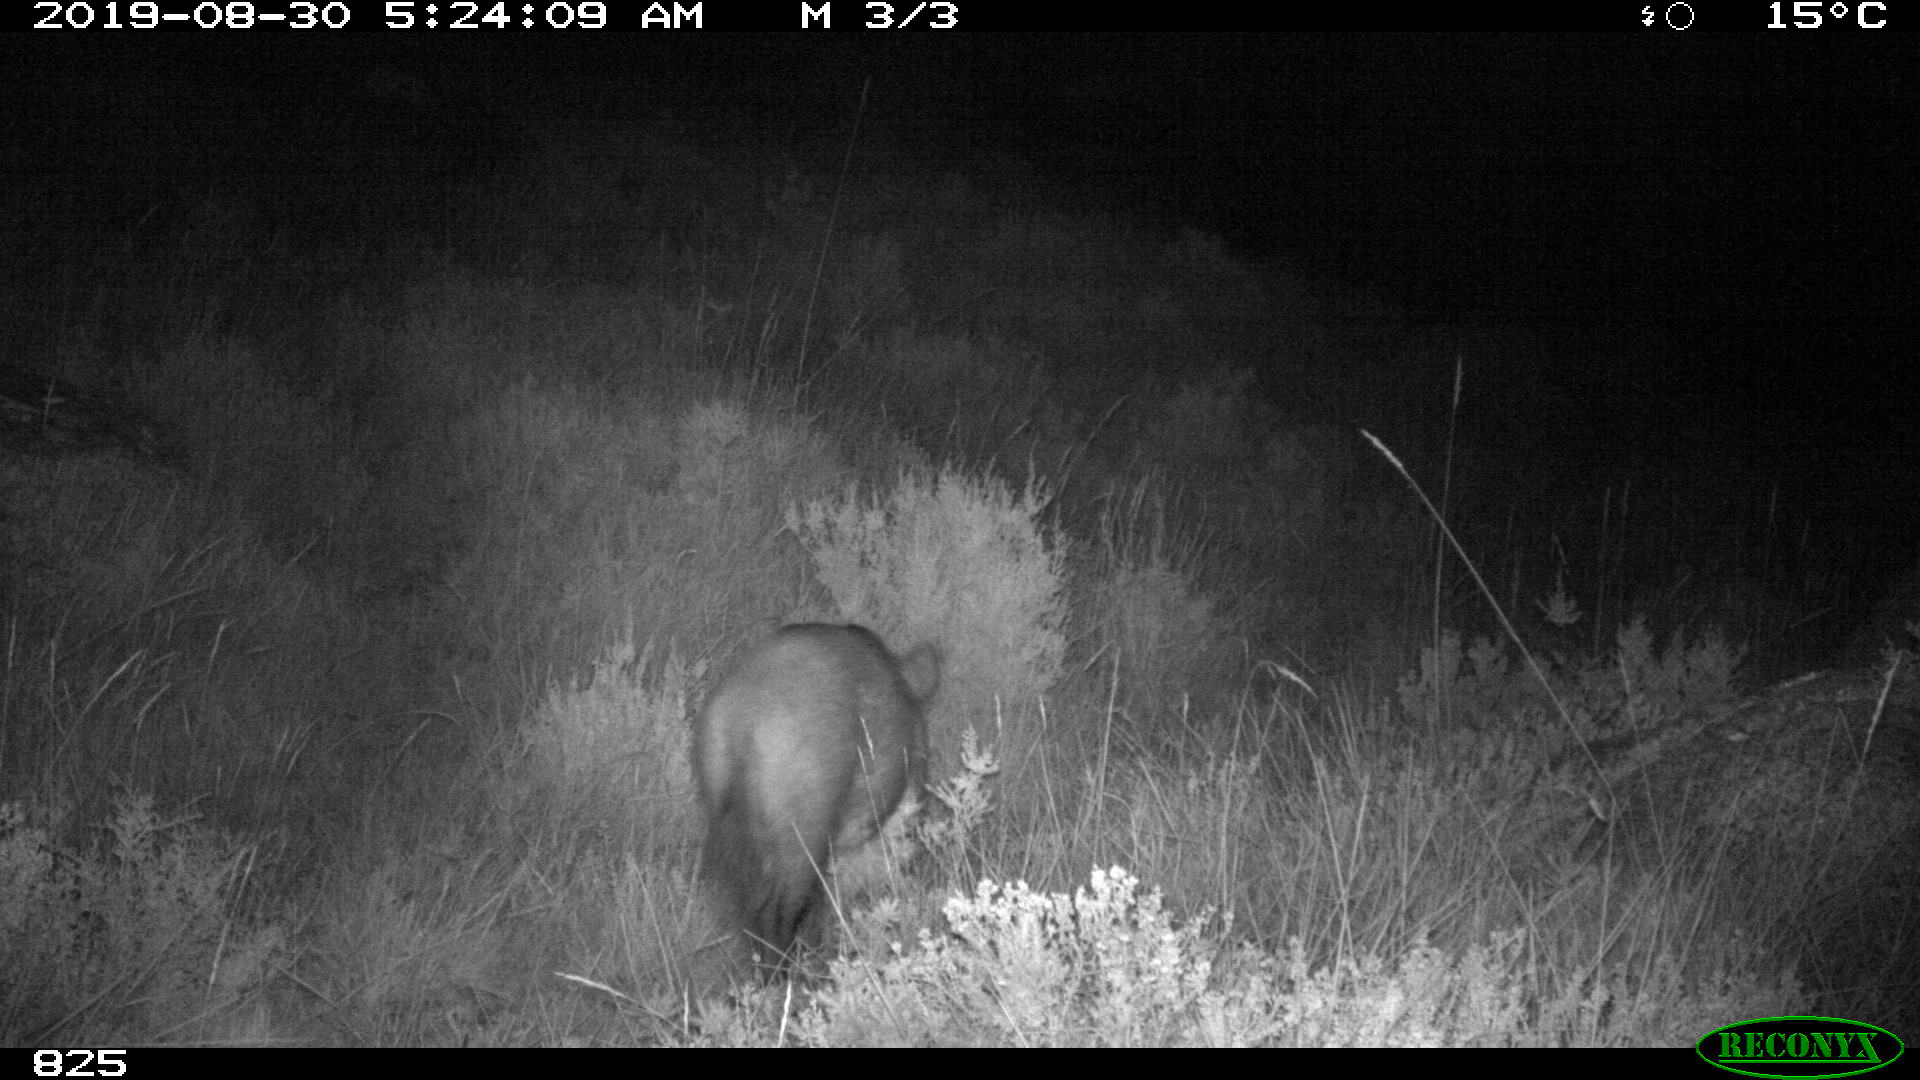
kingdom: Animalia
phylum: Chordata
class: Mammalia
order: Artiodactyla
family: Suidae
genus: Sus
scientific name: Sus scrofa
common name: Wild boar
